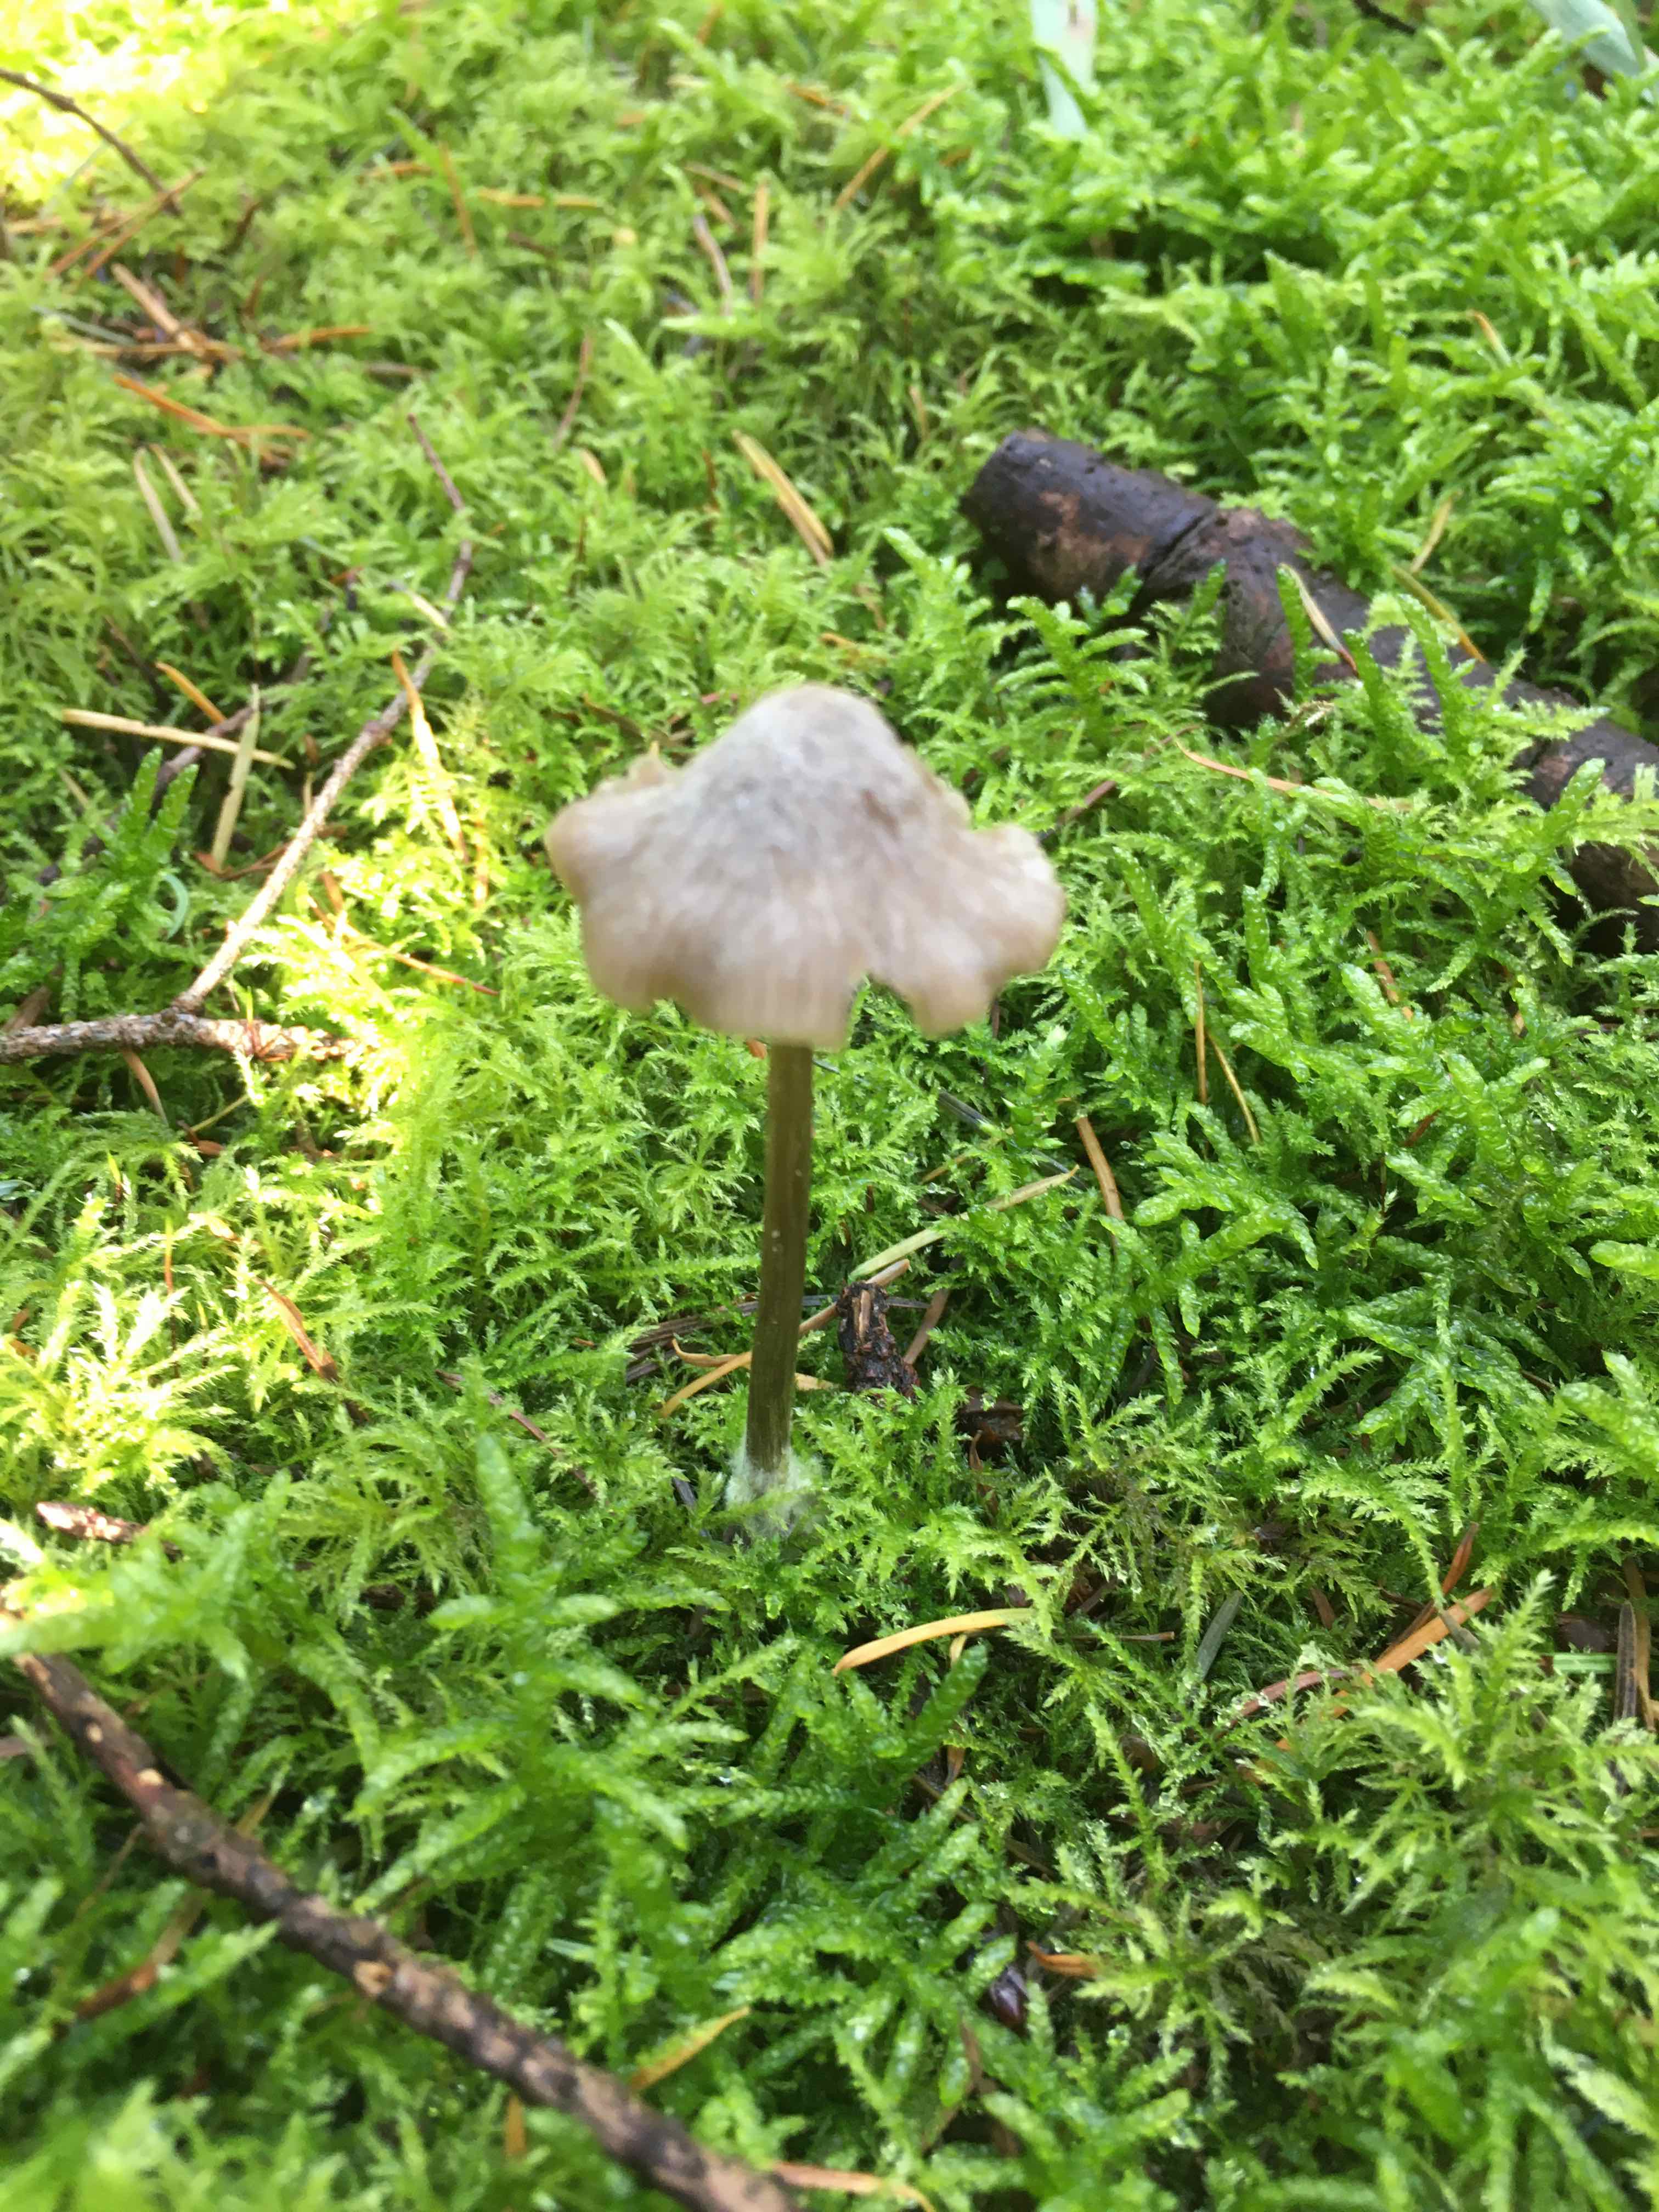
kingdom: Fungi
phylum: Basidiomycota
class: Agaricomycetes
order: Agaricales
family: Entolomataceae
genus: Entoloma
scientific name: Entoloma
